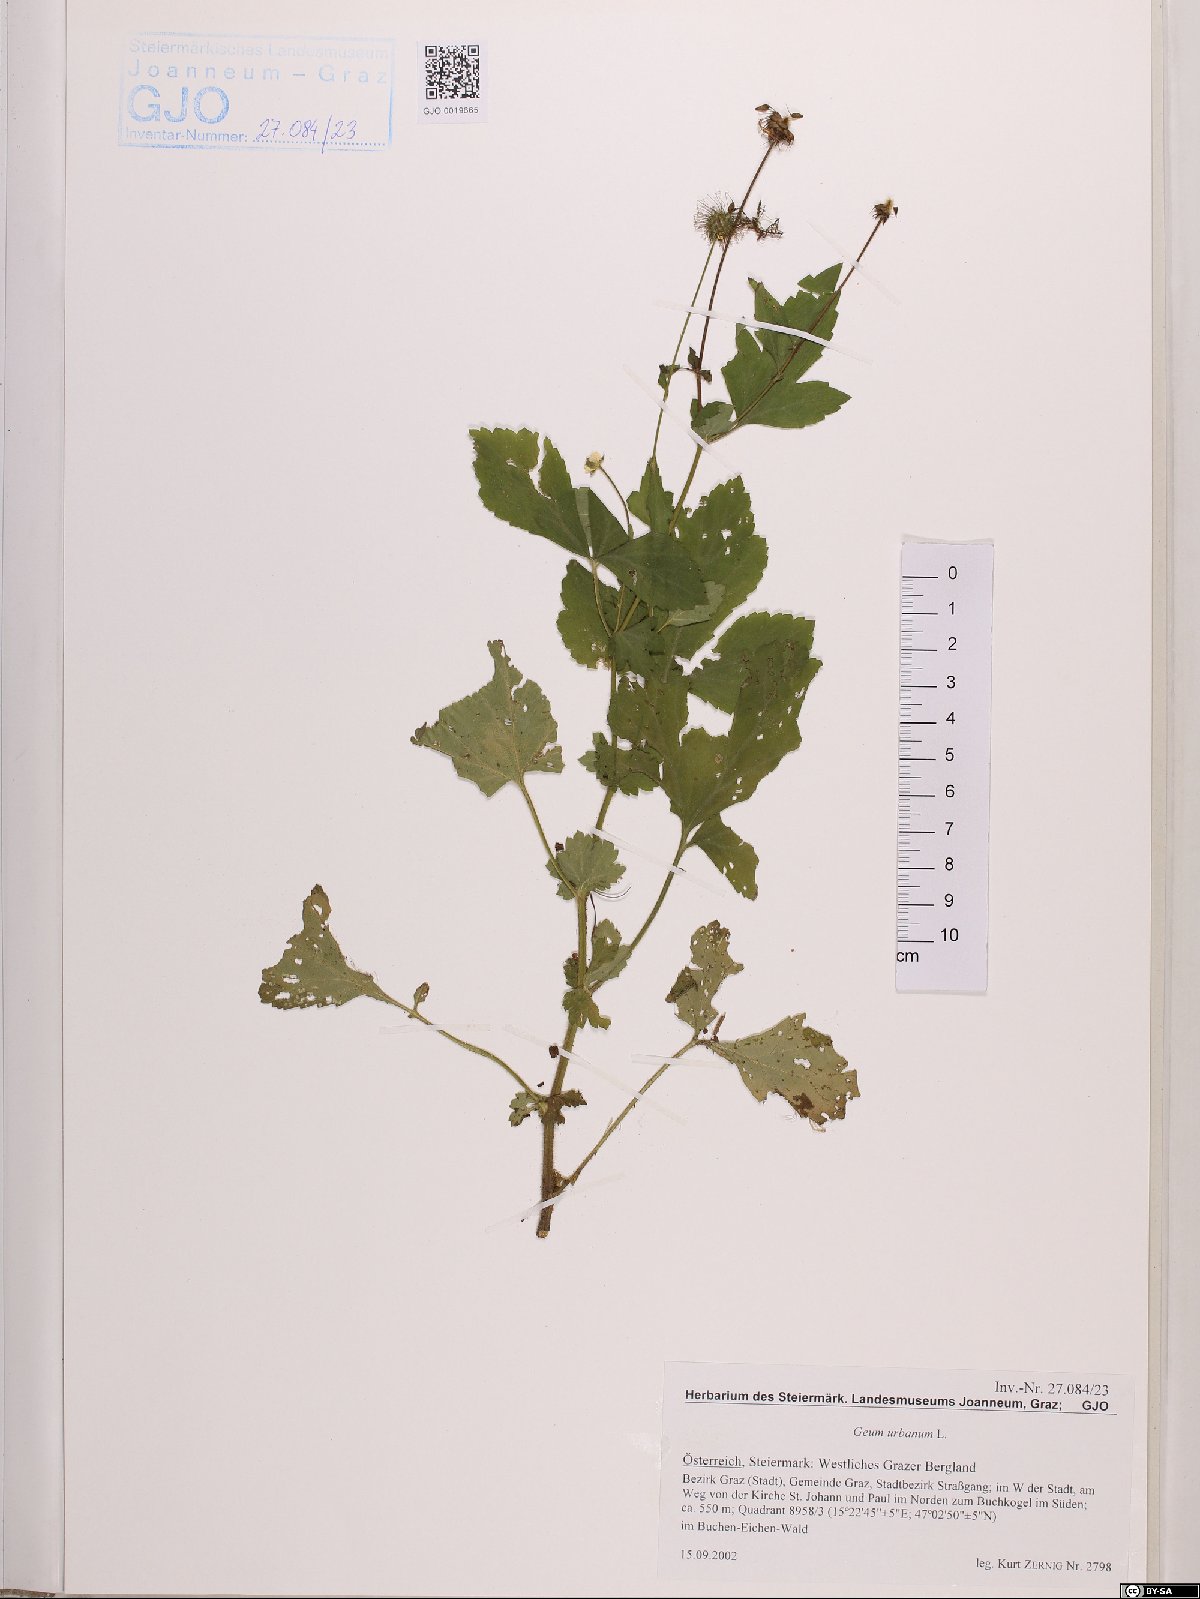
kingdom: Plantae
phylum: Tracheophyta
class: Magnoliopsida
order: Rosales
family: Rosaceae
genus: Geum
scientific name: Geum urbanum
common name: Wood avens
